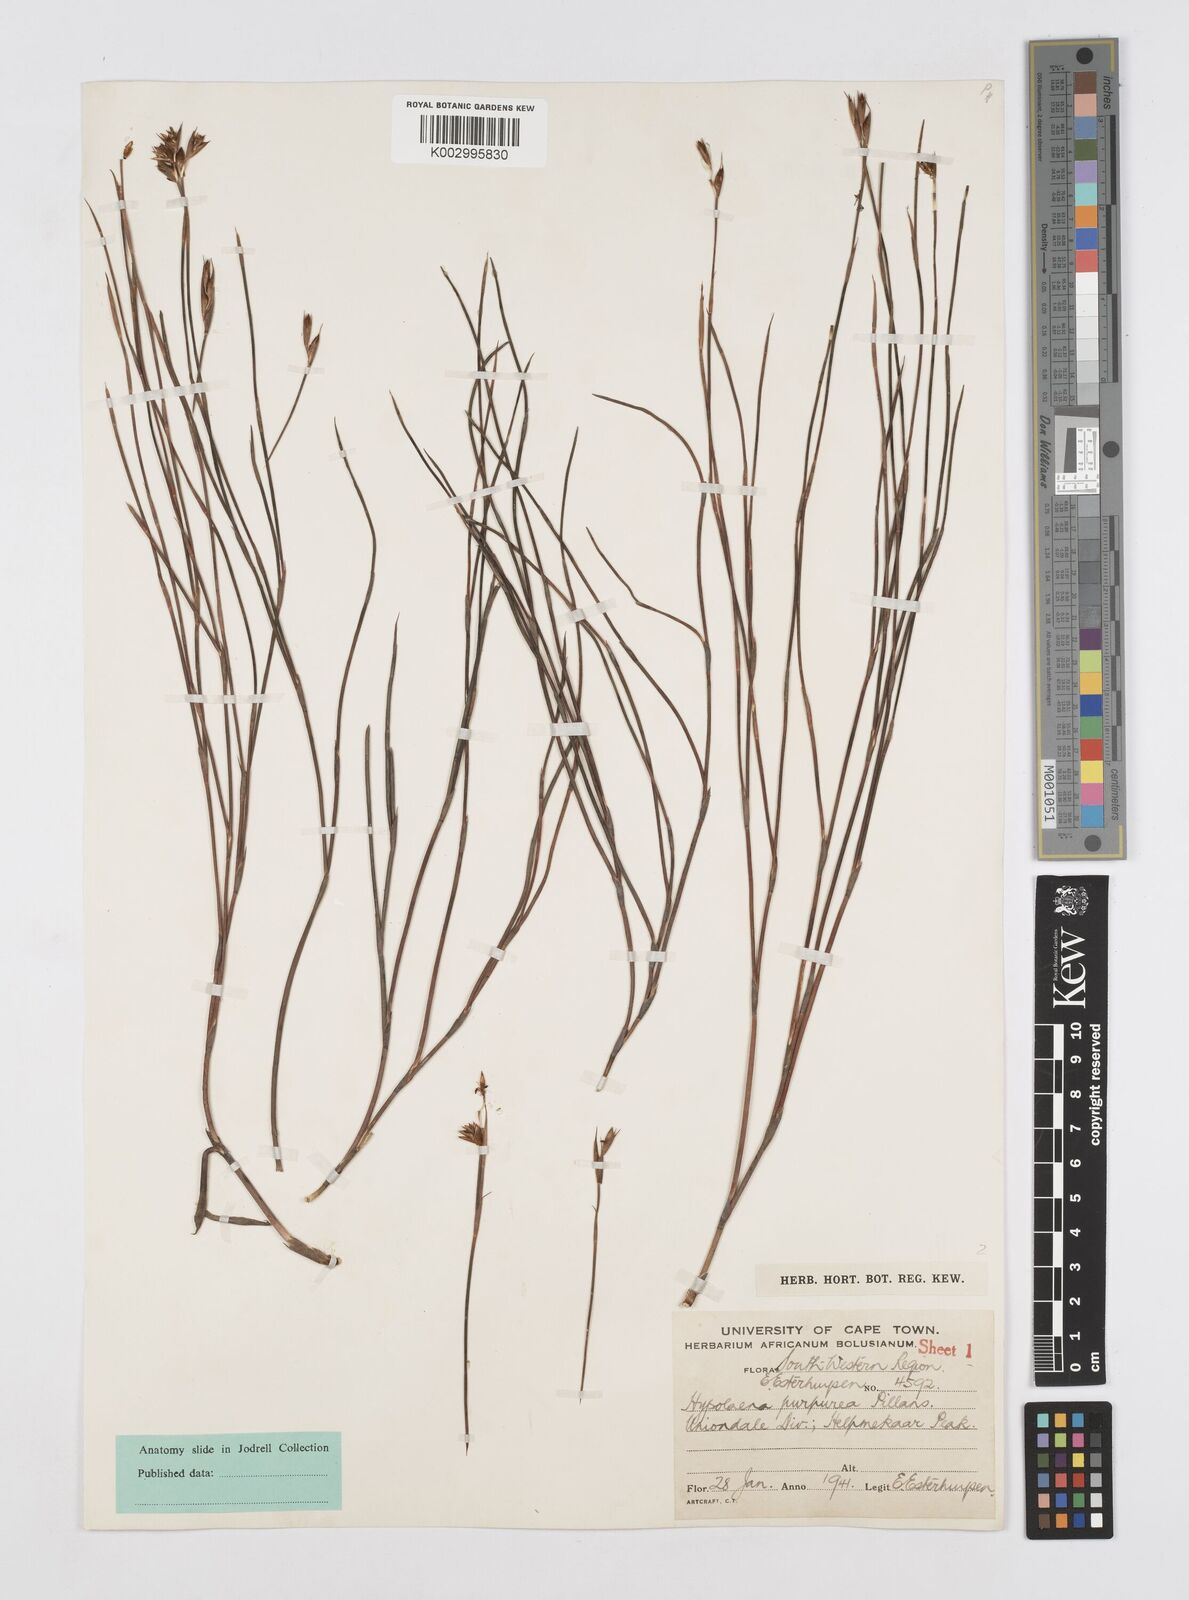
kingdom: Plantae
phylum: Tracheophyta
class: Liliopsida
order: Poales
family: Restionaceae
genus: Mastersiella
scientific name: Mastersiella spathulata
